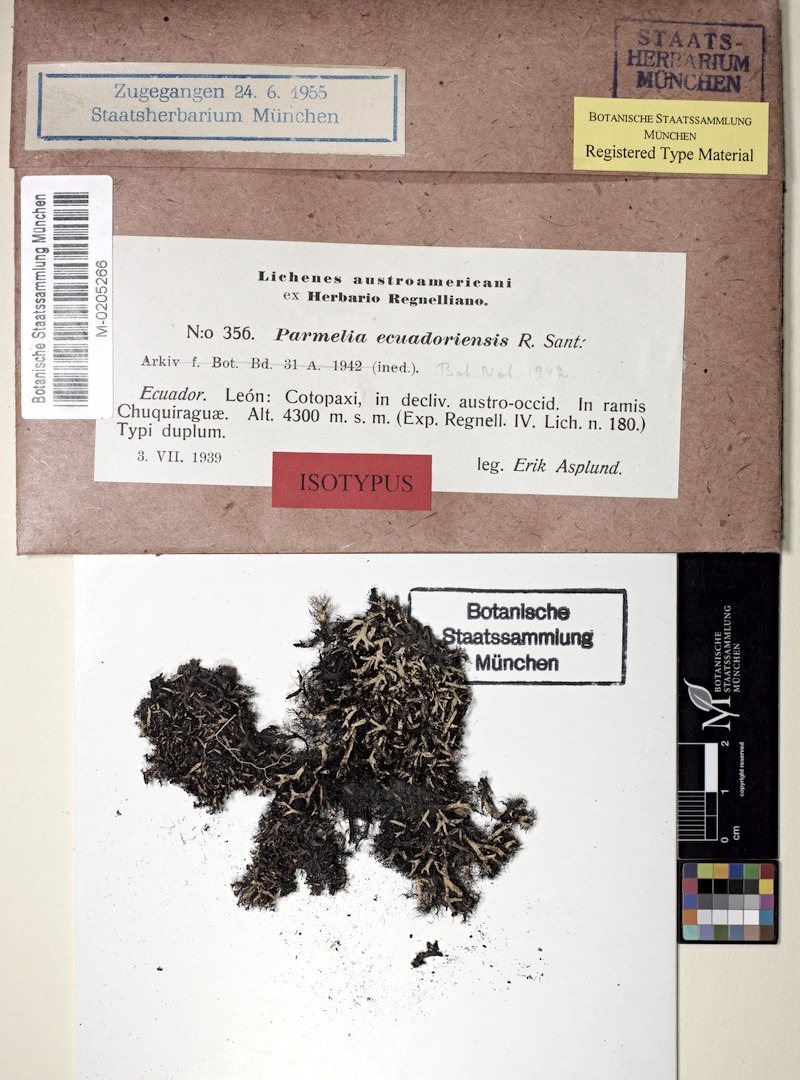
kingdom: Fungi
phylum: Ascomycota
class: Lecanoromycetes
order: Lecanorales
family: Parmeliaceae
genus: Cetrariastrum
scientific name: Cetrariastrum equadoriense
